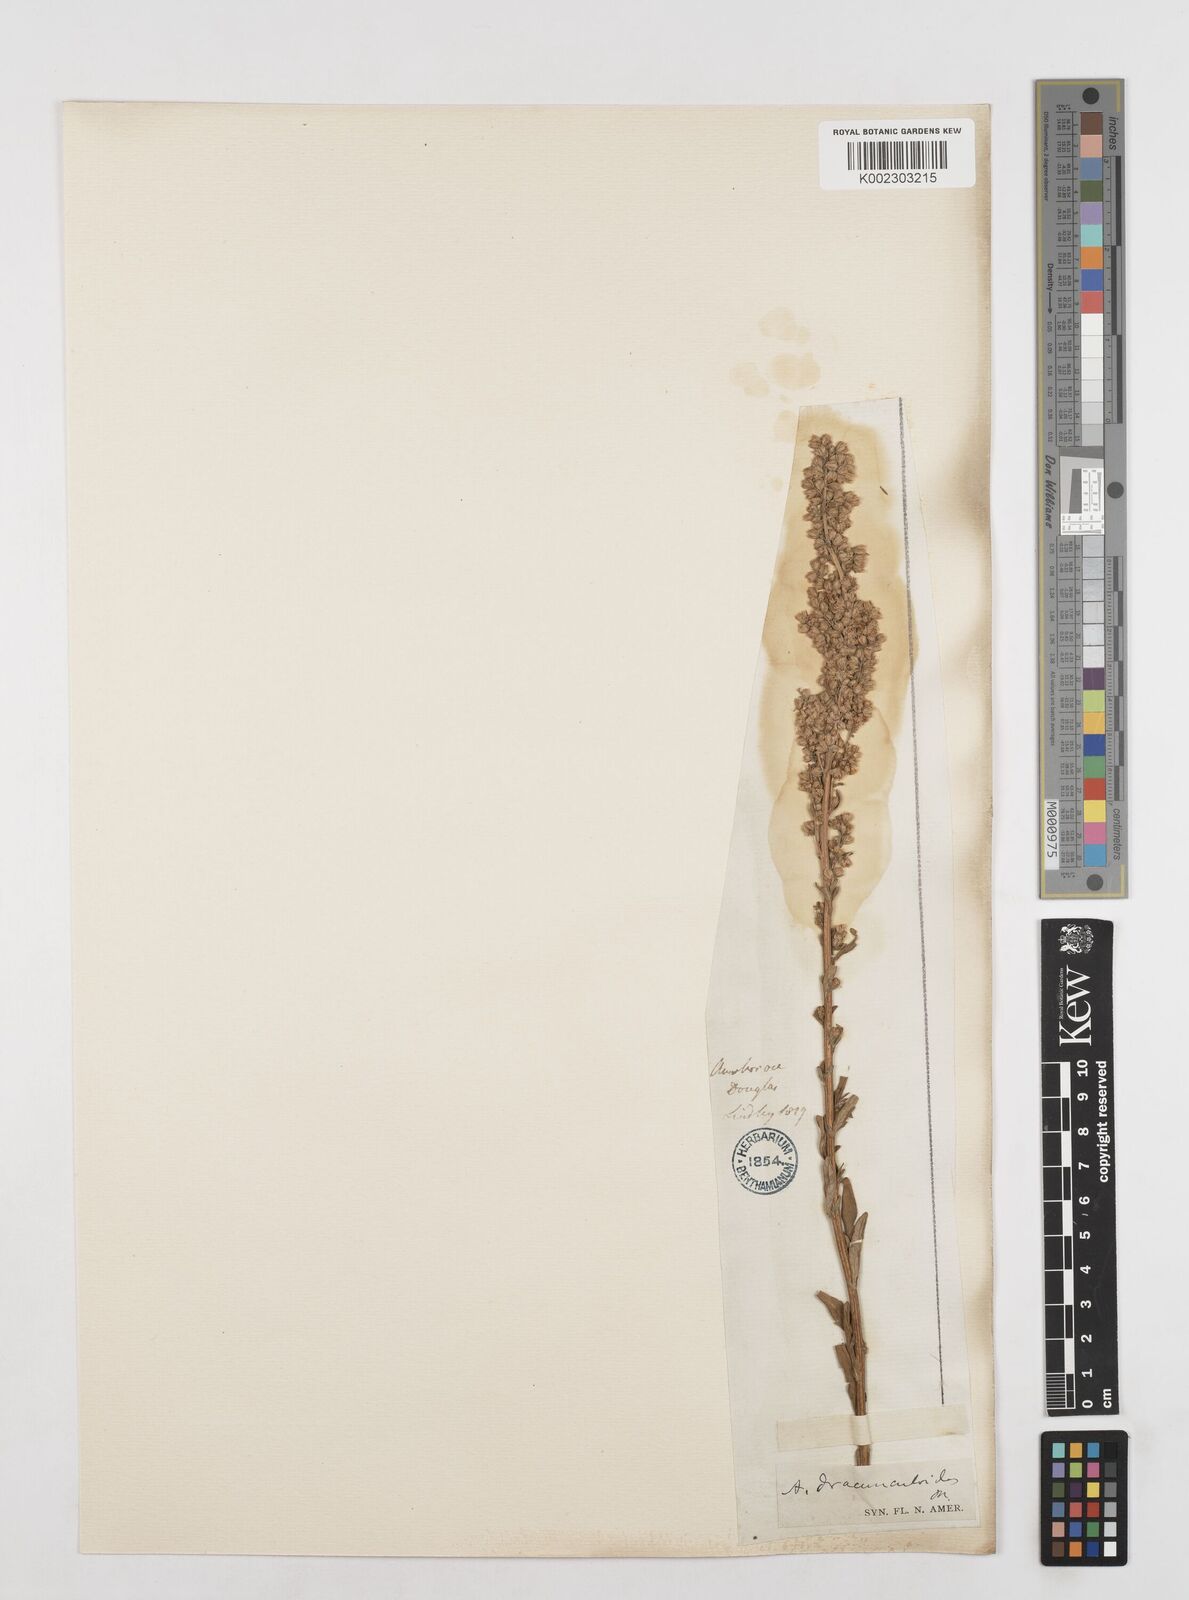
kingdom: Plantae
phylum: Tracheophyta
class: Magnoliopsida
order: Asterales
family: Asteraceae
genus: Artemisia
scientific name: Artemisia dracunculus
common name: Tarragon
